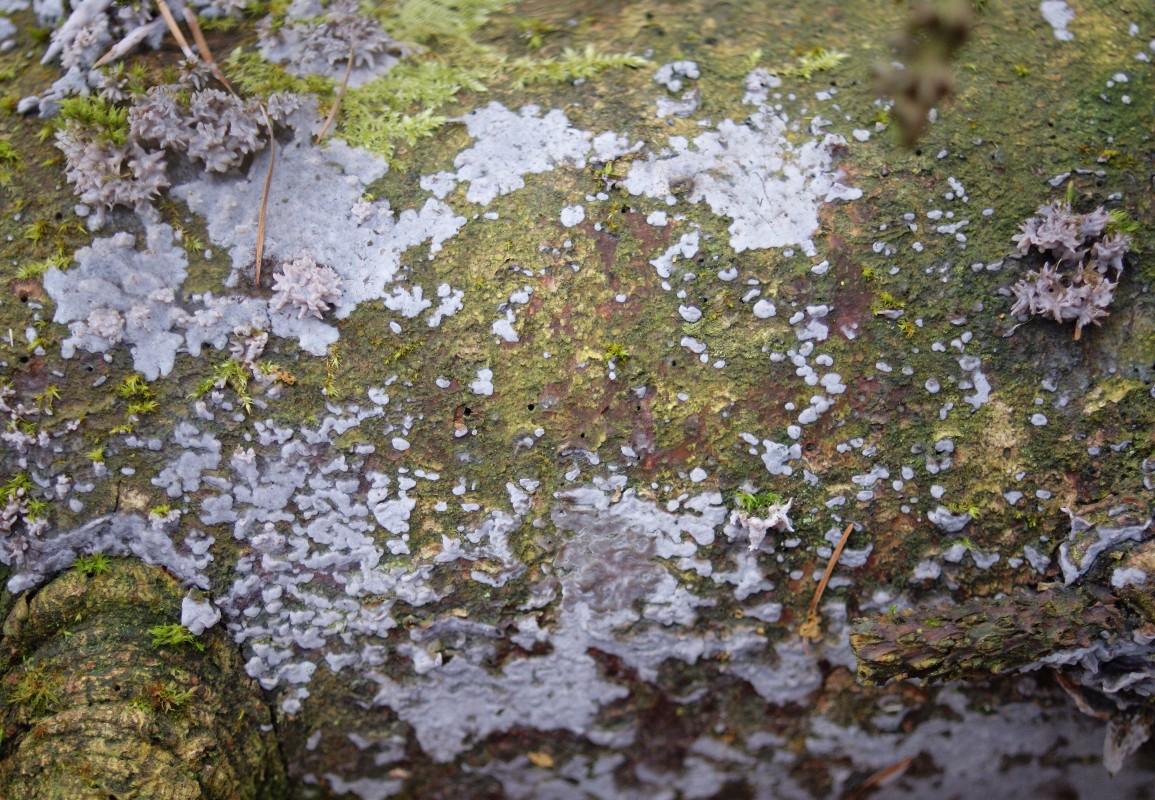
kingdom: Fungi
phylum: Basidiomycota
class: Agaricomycetes
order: Sebacinales
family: Sebacinaceae
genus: Sebacina
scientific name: Sebacina grisea
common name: blågrå bævrehinde
